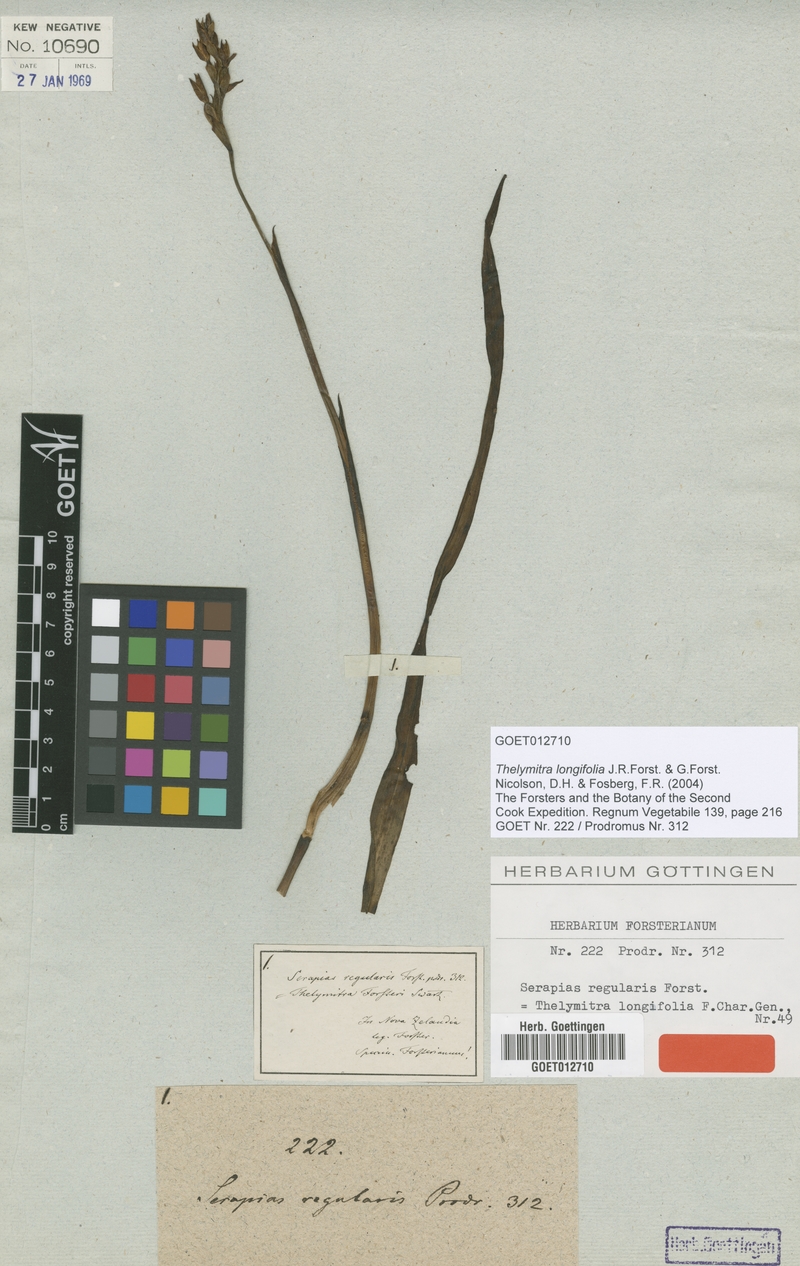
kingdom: Plantae
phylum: Tracheophyta
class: Liliopsida
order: Asparagales
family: Orchidaceae
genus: Thelymitra
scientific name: Thelymitra longifolia
